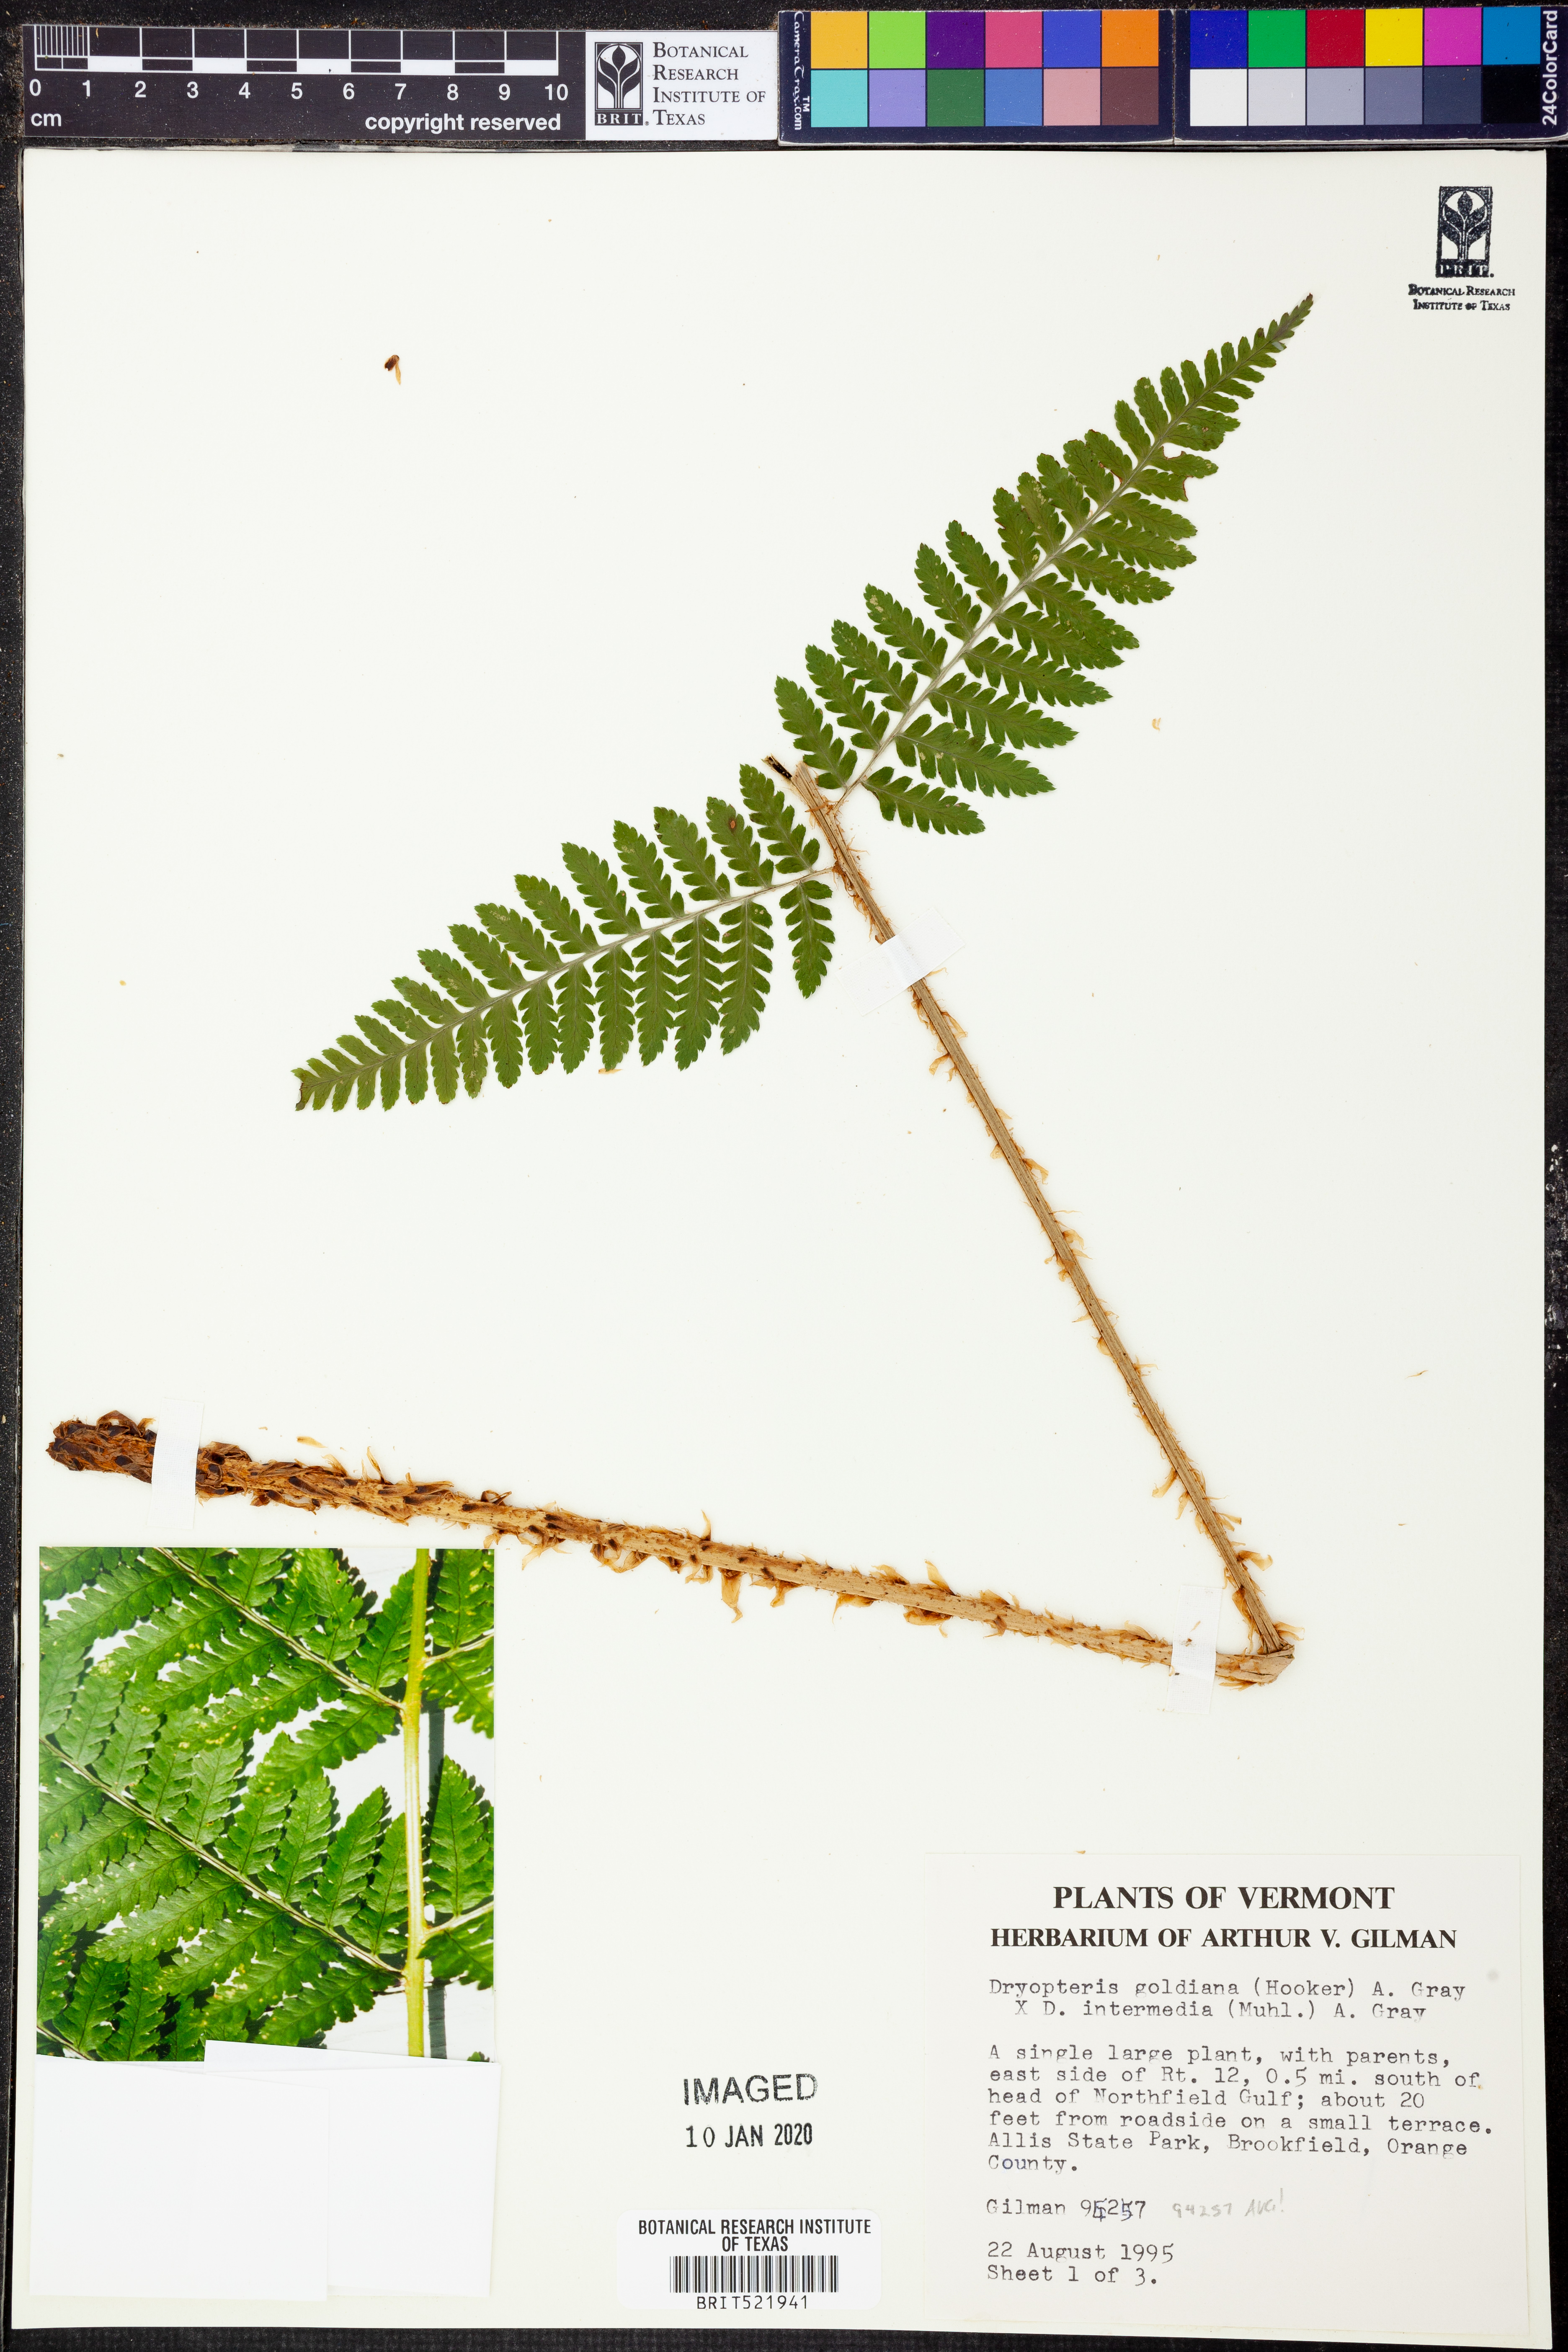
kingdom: Plantae
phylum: Tracheophyta
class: Polypodiopsida
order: Polypodiales
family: Dryopteridaceae
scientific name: Dryopteridaceae
